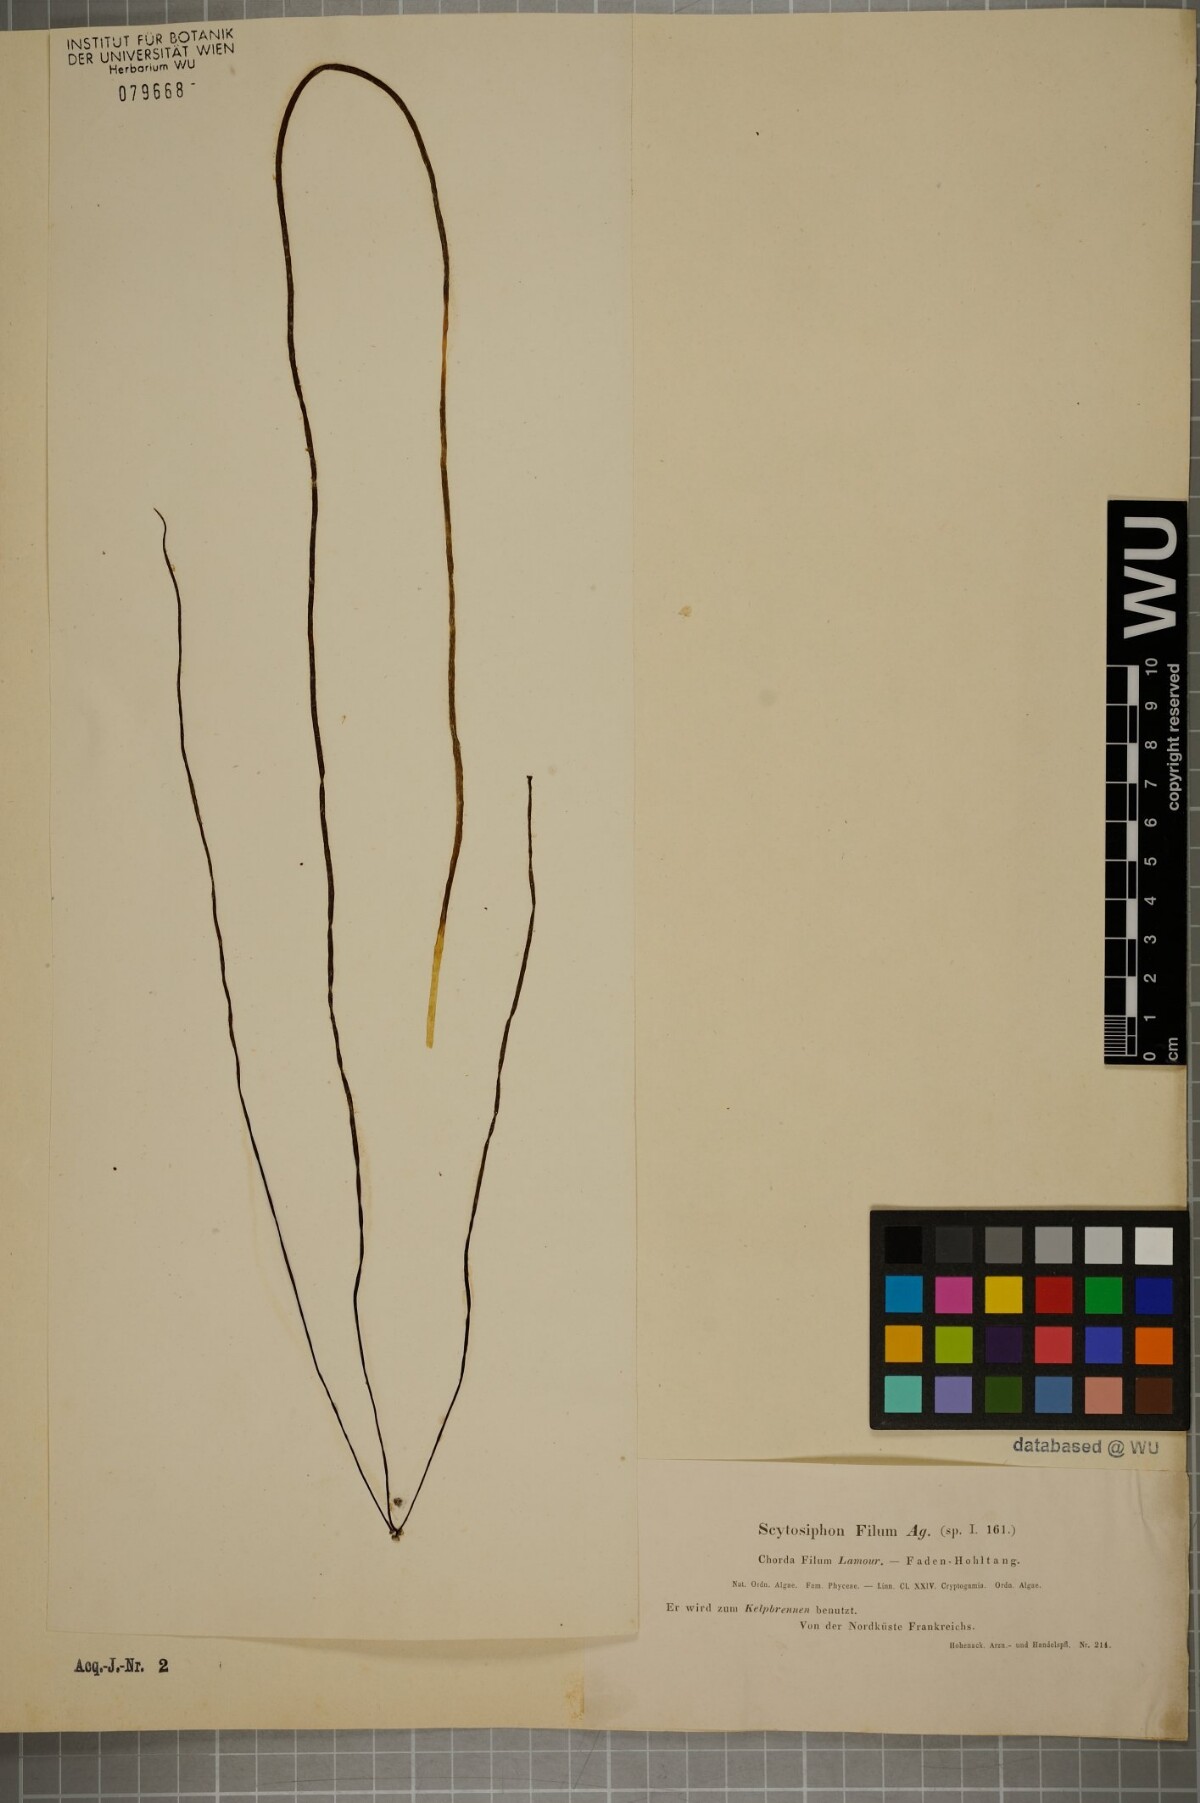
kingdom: Chromista
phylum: Ochrophyta
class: Phaeophyceae
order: Laminariales
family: Chordaceae
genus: Chorda
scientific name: Chorda filum
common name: Mermaid's tresses
